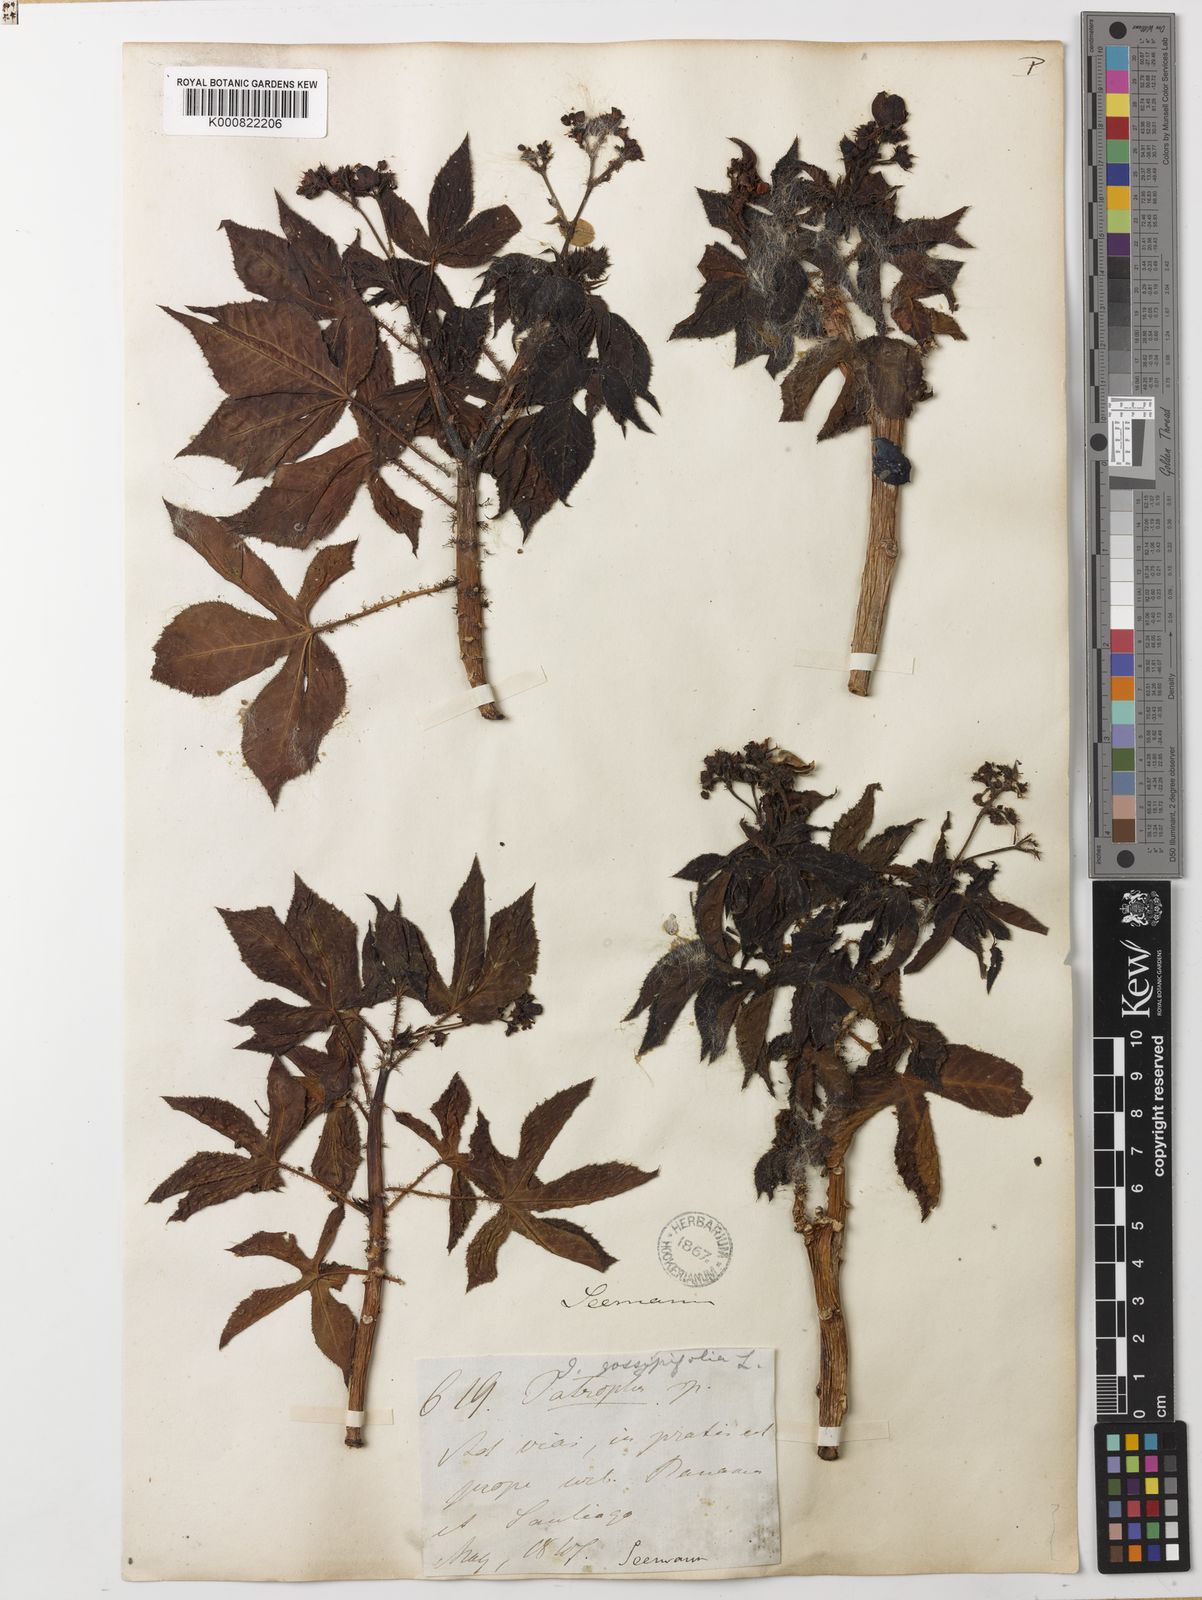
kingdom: Plantae
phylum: Tracheophyta
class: Magnoliopsida
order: Malpighiales
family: Euphorbiaceae
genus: Jatropha
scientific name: Jatropha gossypiifolia
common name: Bellyache bush
